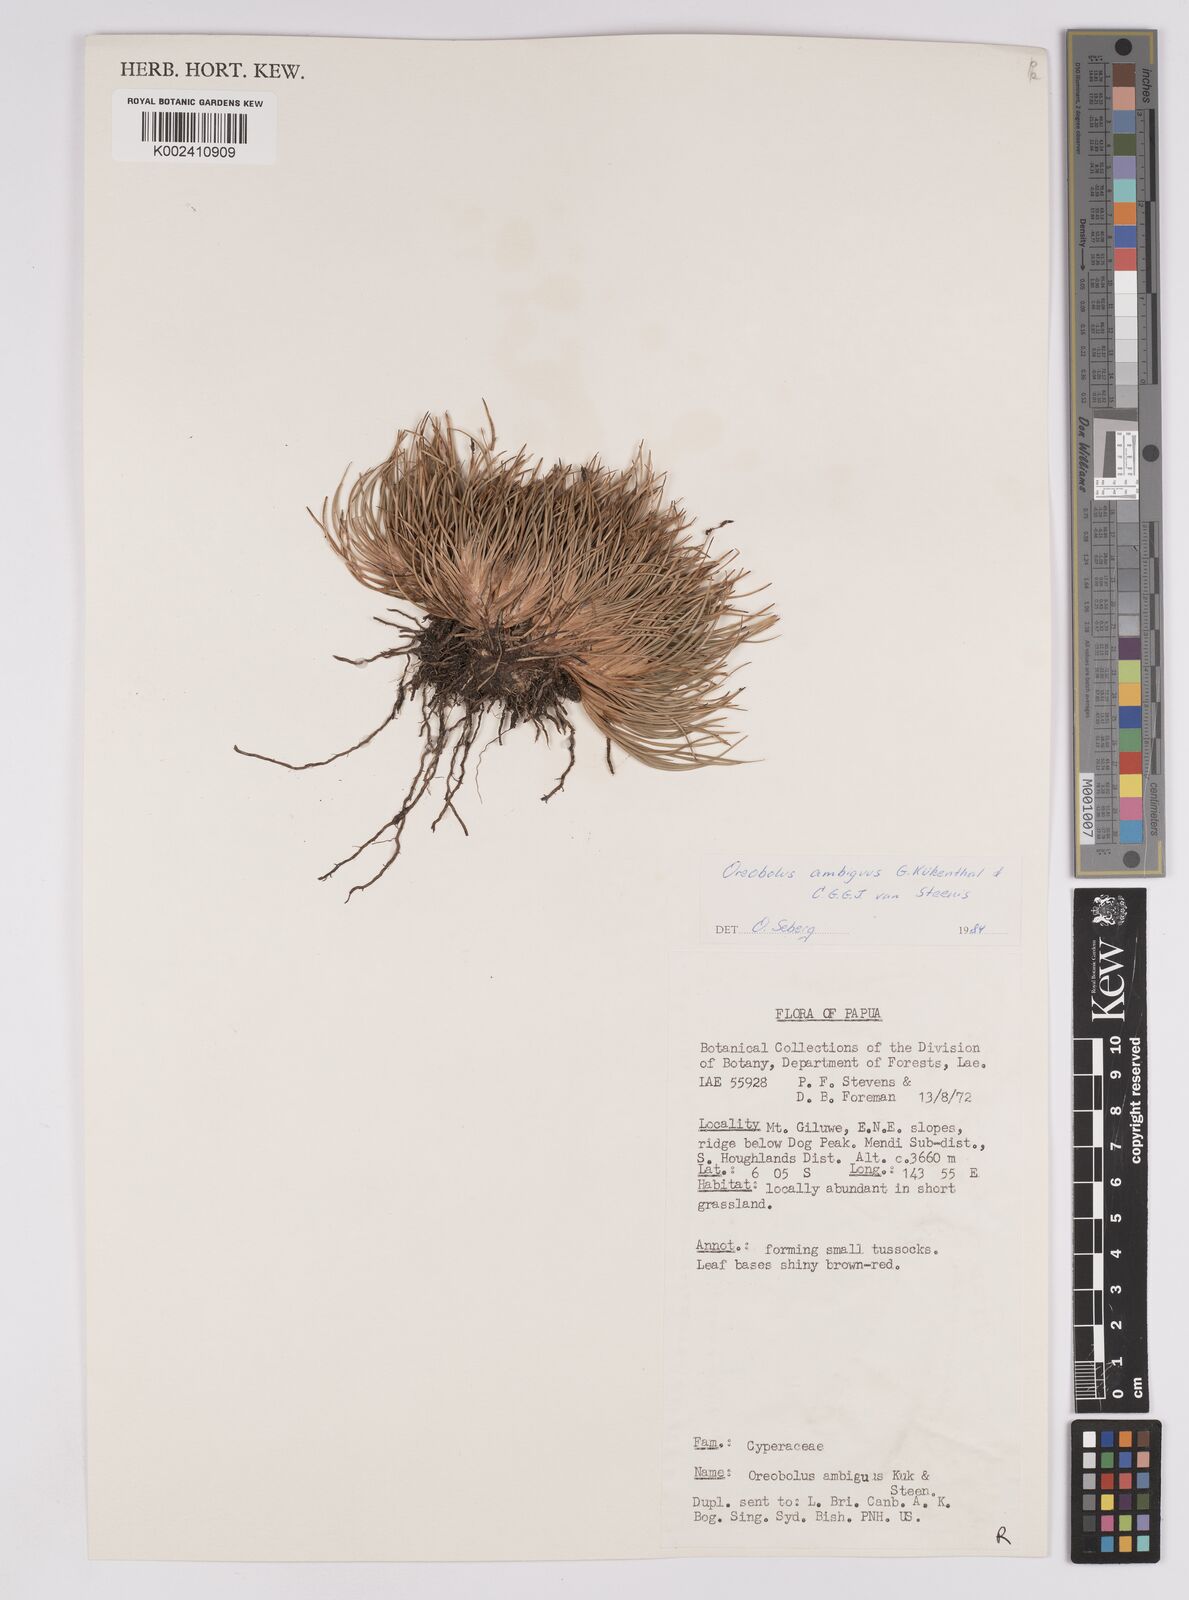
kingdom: Plantae
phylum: Tracheophyta
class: Liliopsida
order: Poales
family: Cyperaceae
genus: Oreobolus
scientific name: Oreobolus ambiguus
